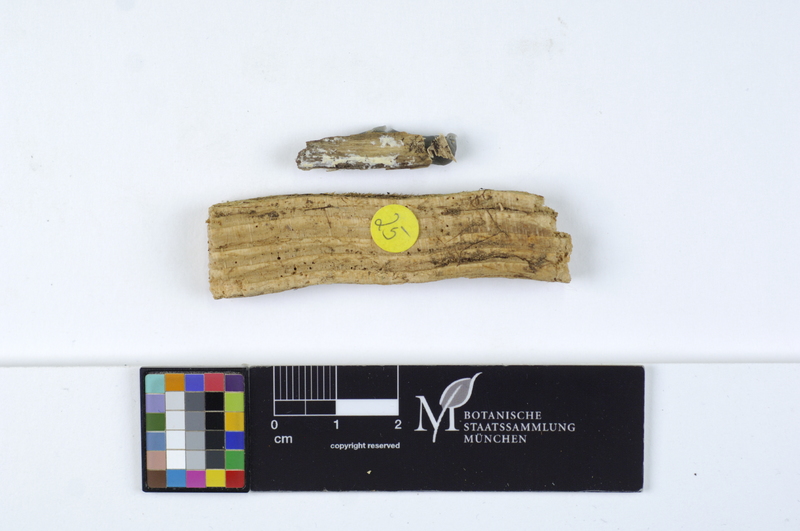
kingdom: Plantae
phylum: Tracheophyta
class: Pinopsida
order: Pinales
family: Pinaceae
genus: Picea
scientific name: Picea
